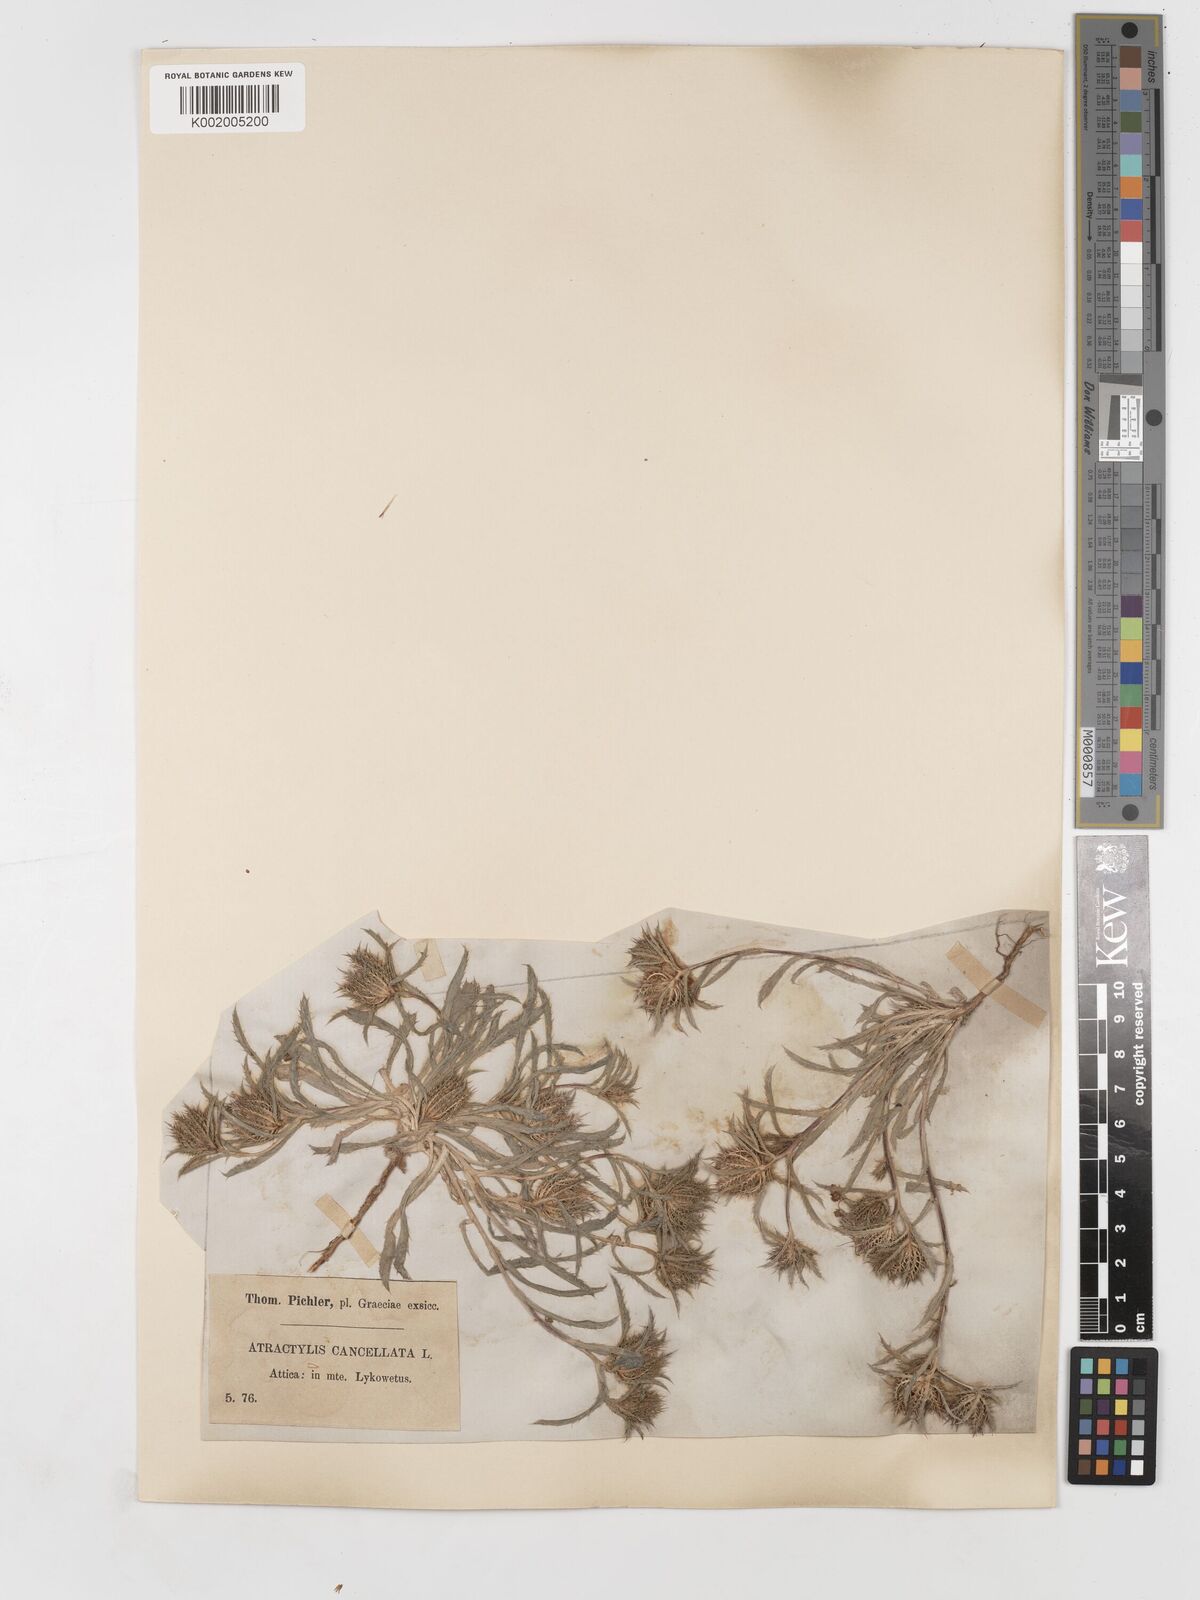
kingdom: Plantae
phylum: Tracheophyta
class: Magnoliopsida
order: Asterales
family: Asteraceae
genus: Atractylis
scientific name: Atractylis cancellata
